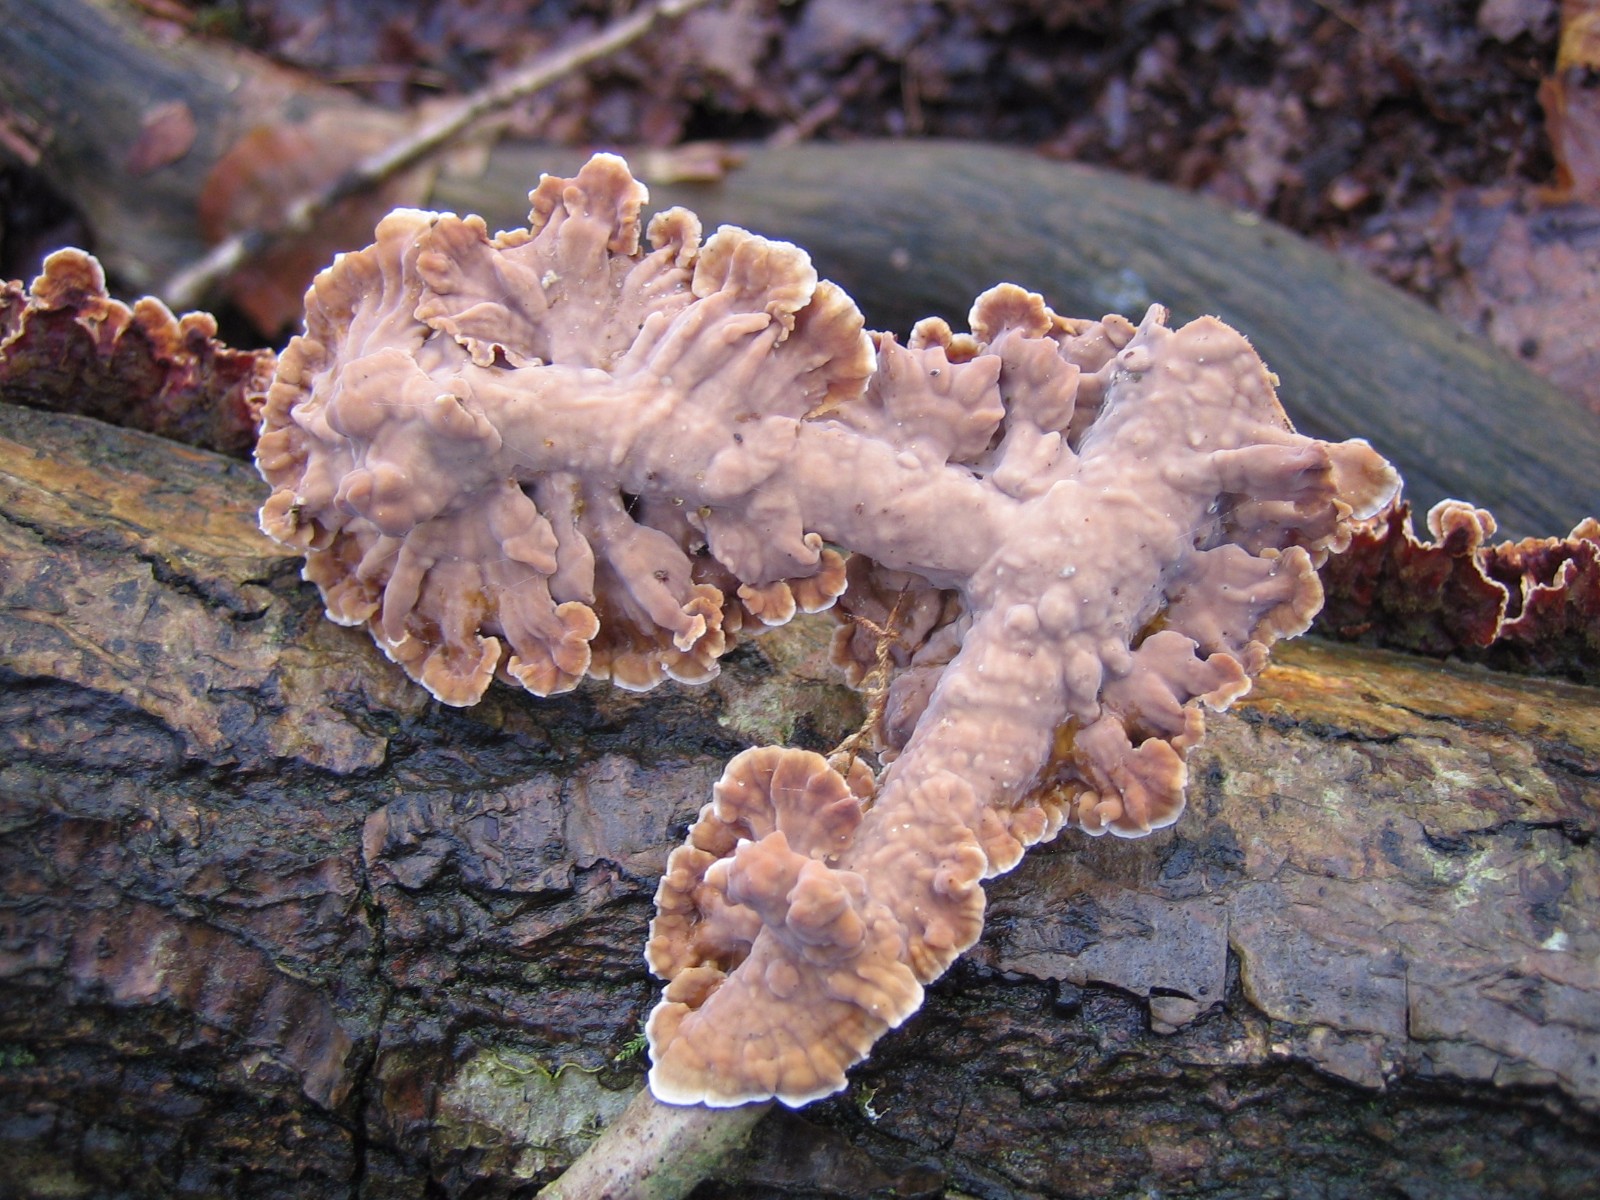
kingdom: Fungi
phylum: Basidiomycota
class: Agaricomycetes
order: Russulales
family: Stereaceae
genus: Stereum
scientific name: Stereum hirsutum
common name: håret lædersvamp
